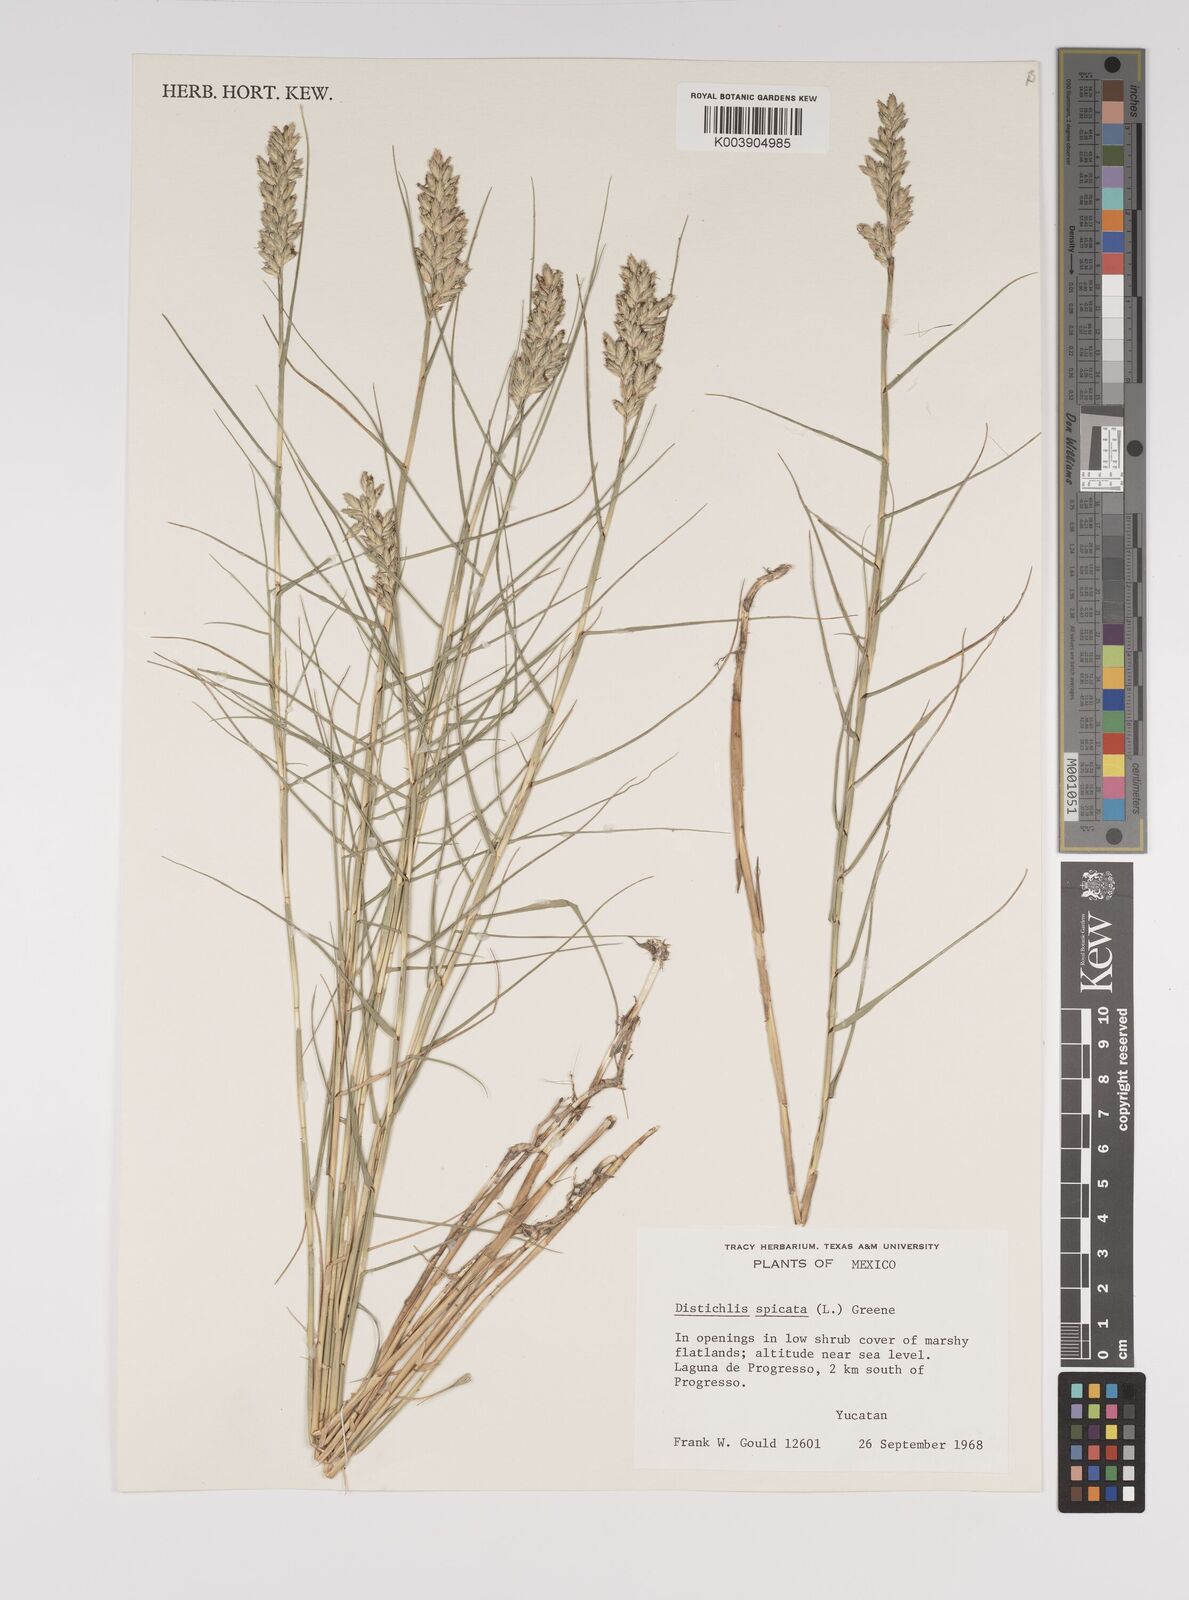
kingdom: Plantae
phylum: Tracheophyta
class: Liliopsida
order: Poales
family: Poaceae
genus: Distichlis
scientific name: Distichlis spicata
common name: Saltgrass
